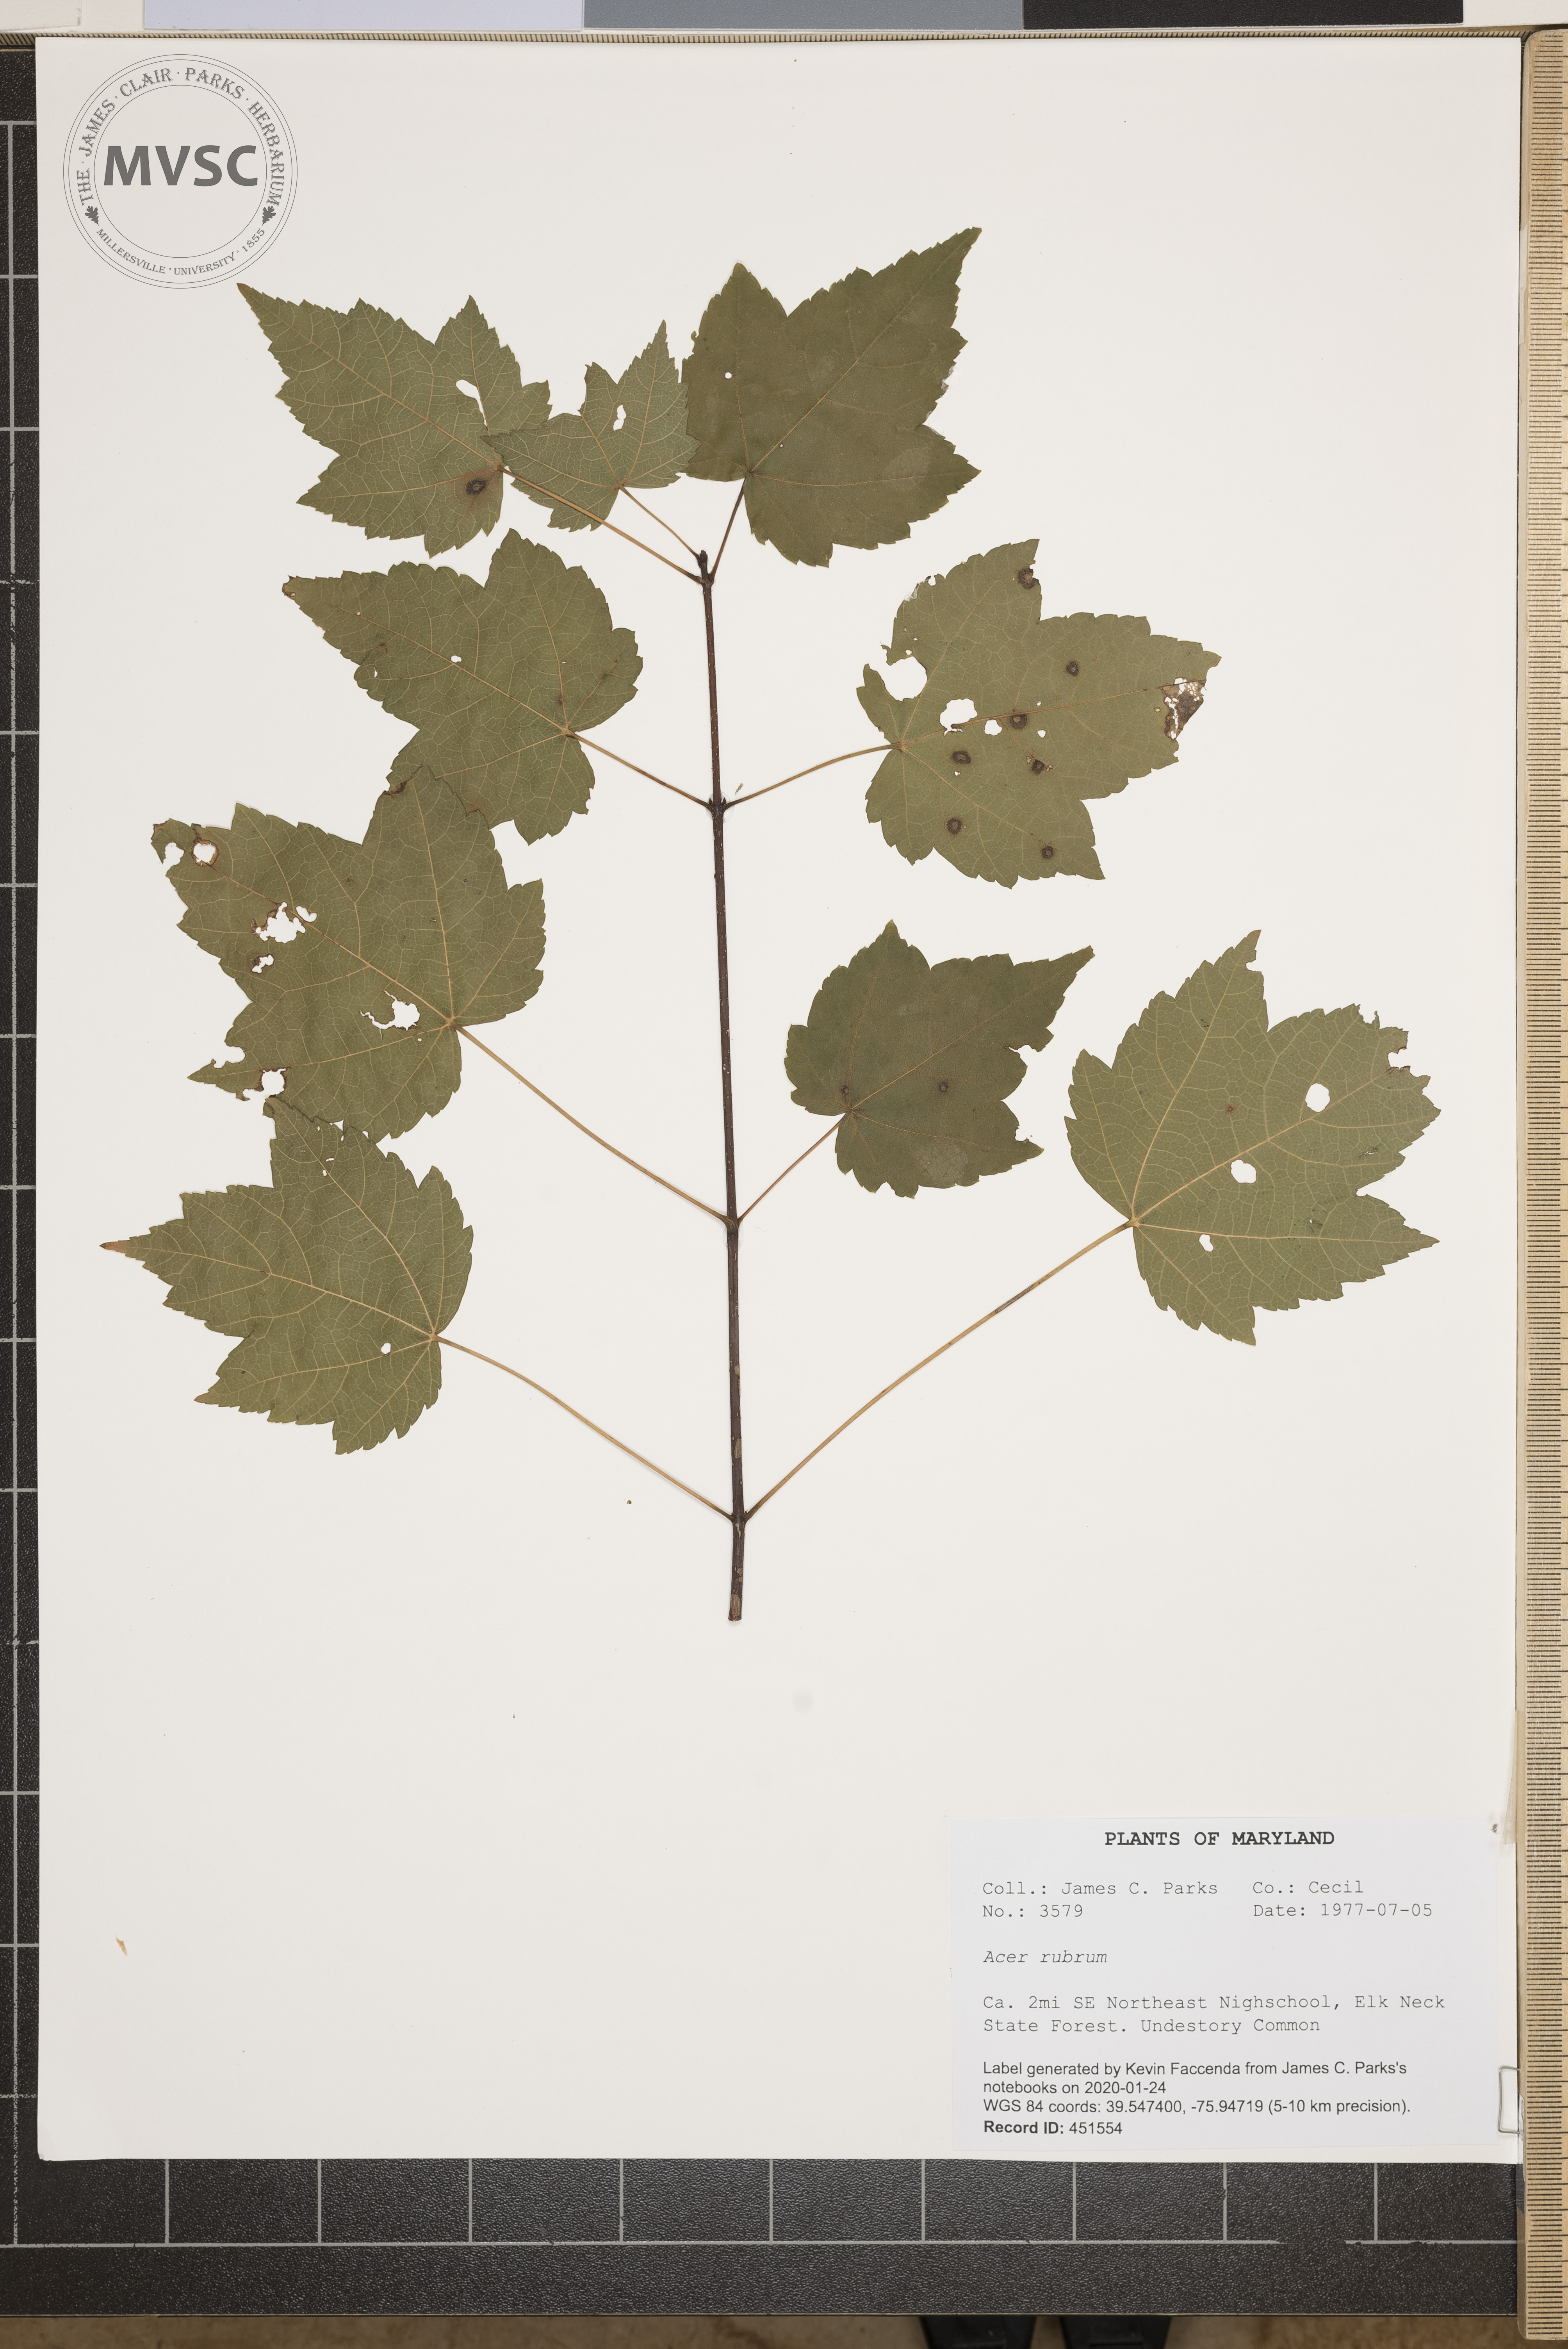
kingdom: Plantae
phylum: Tracheophyta
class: Magnoliopsida
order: Sapindales
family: Sapindaceae
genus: Acer
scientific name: Acer rubrum
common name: Red maple
